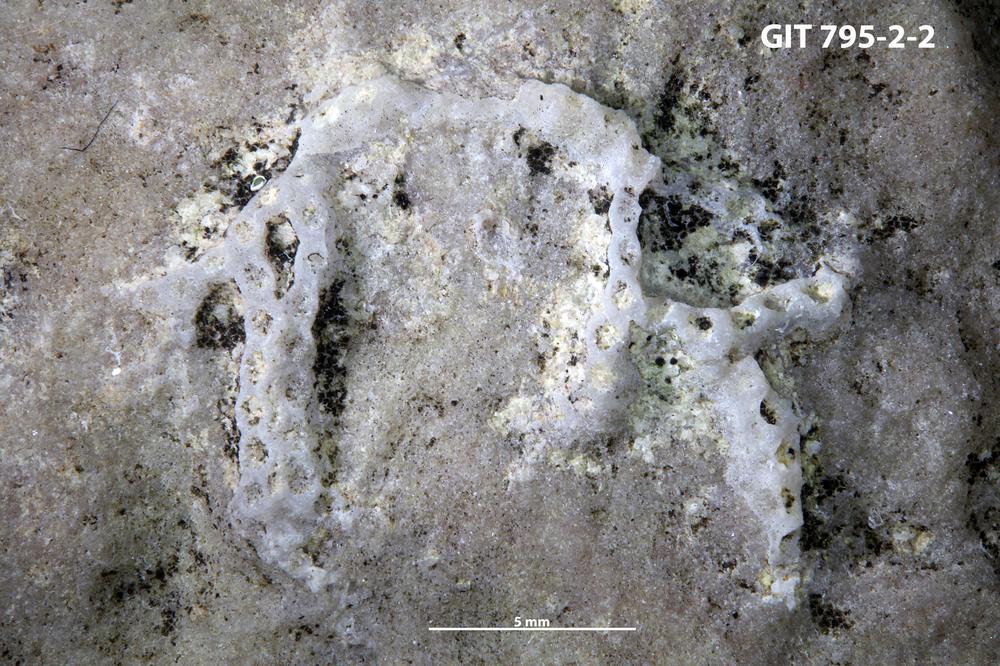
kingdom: Animalia
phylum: Bryozoa
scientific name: Bryozoa
